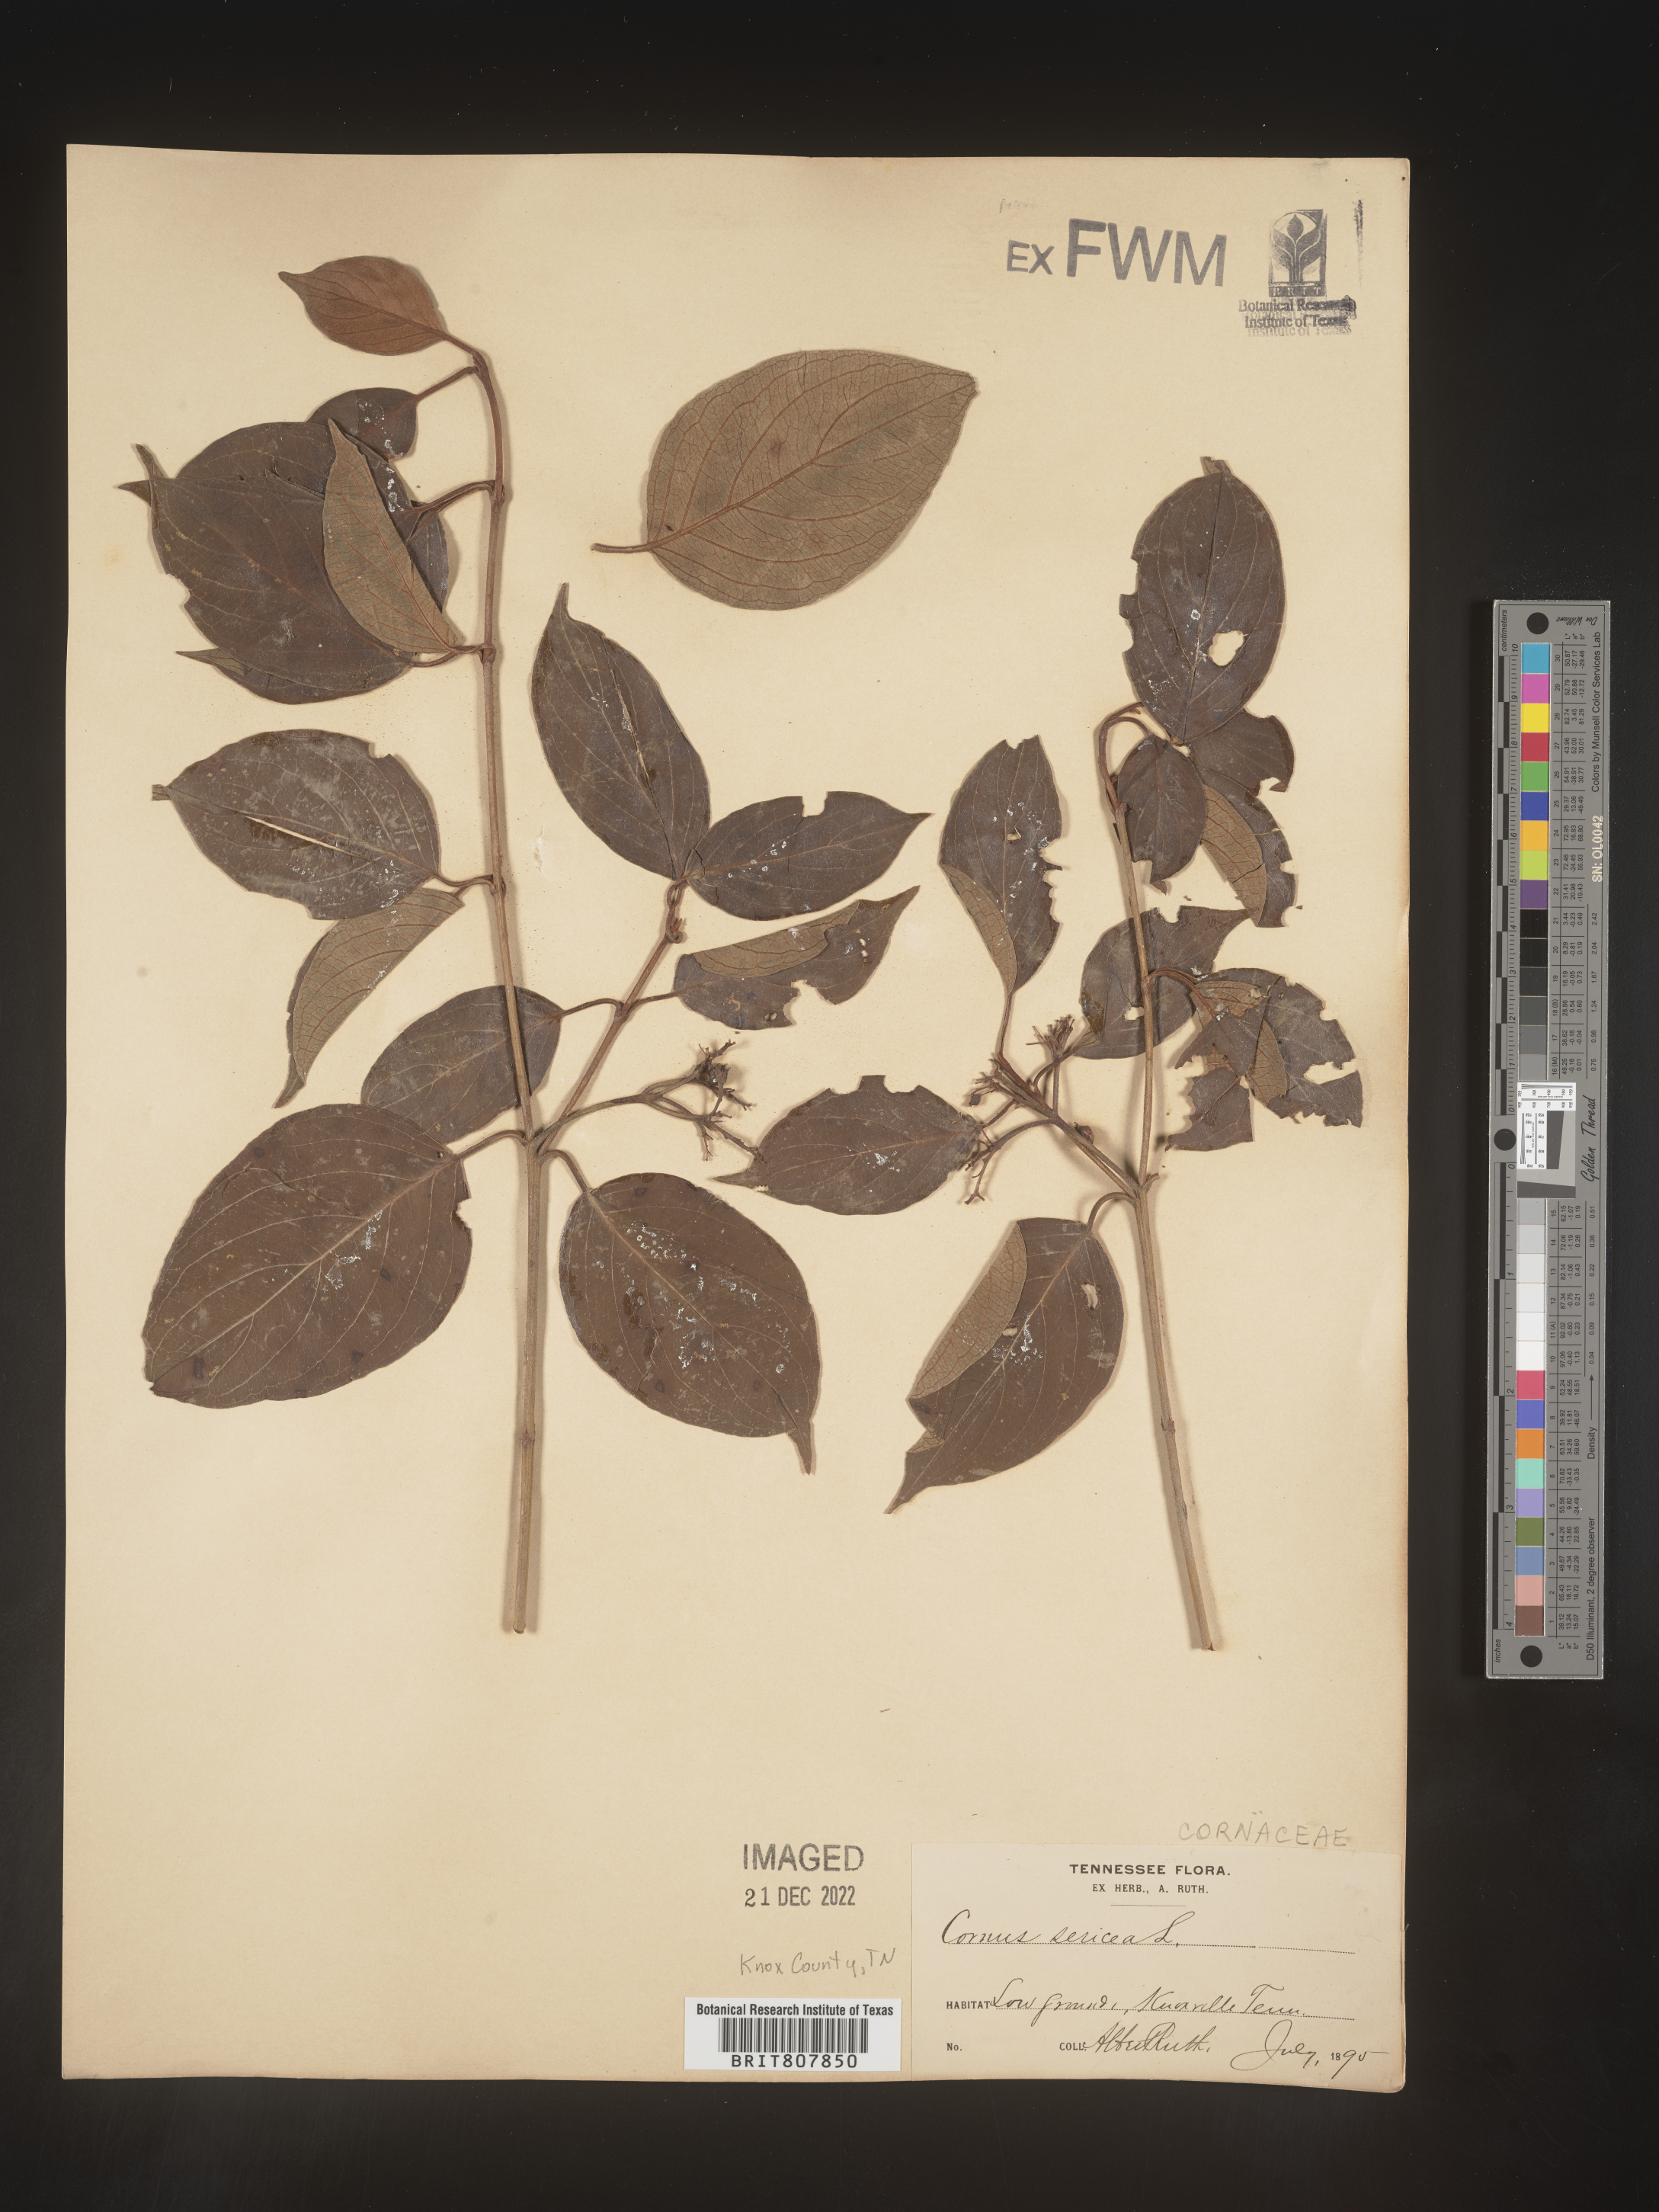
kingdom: Plantae
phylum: Tracheophyta
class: Magnoliopsida
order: Cornales
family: Cornaceae
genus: Cornus
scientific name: Cornus
